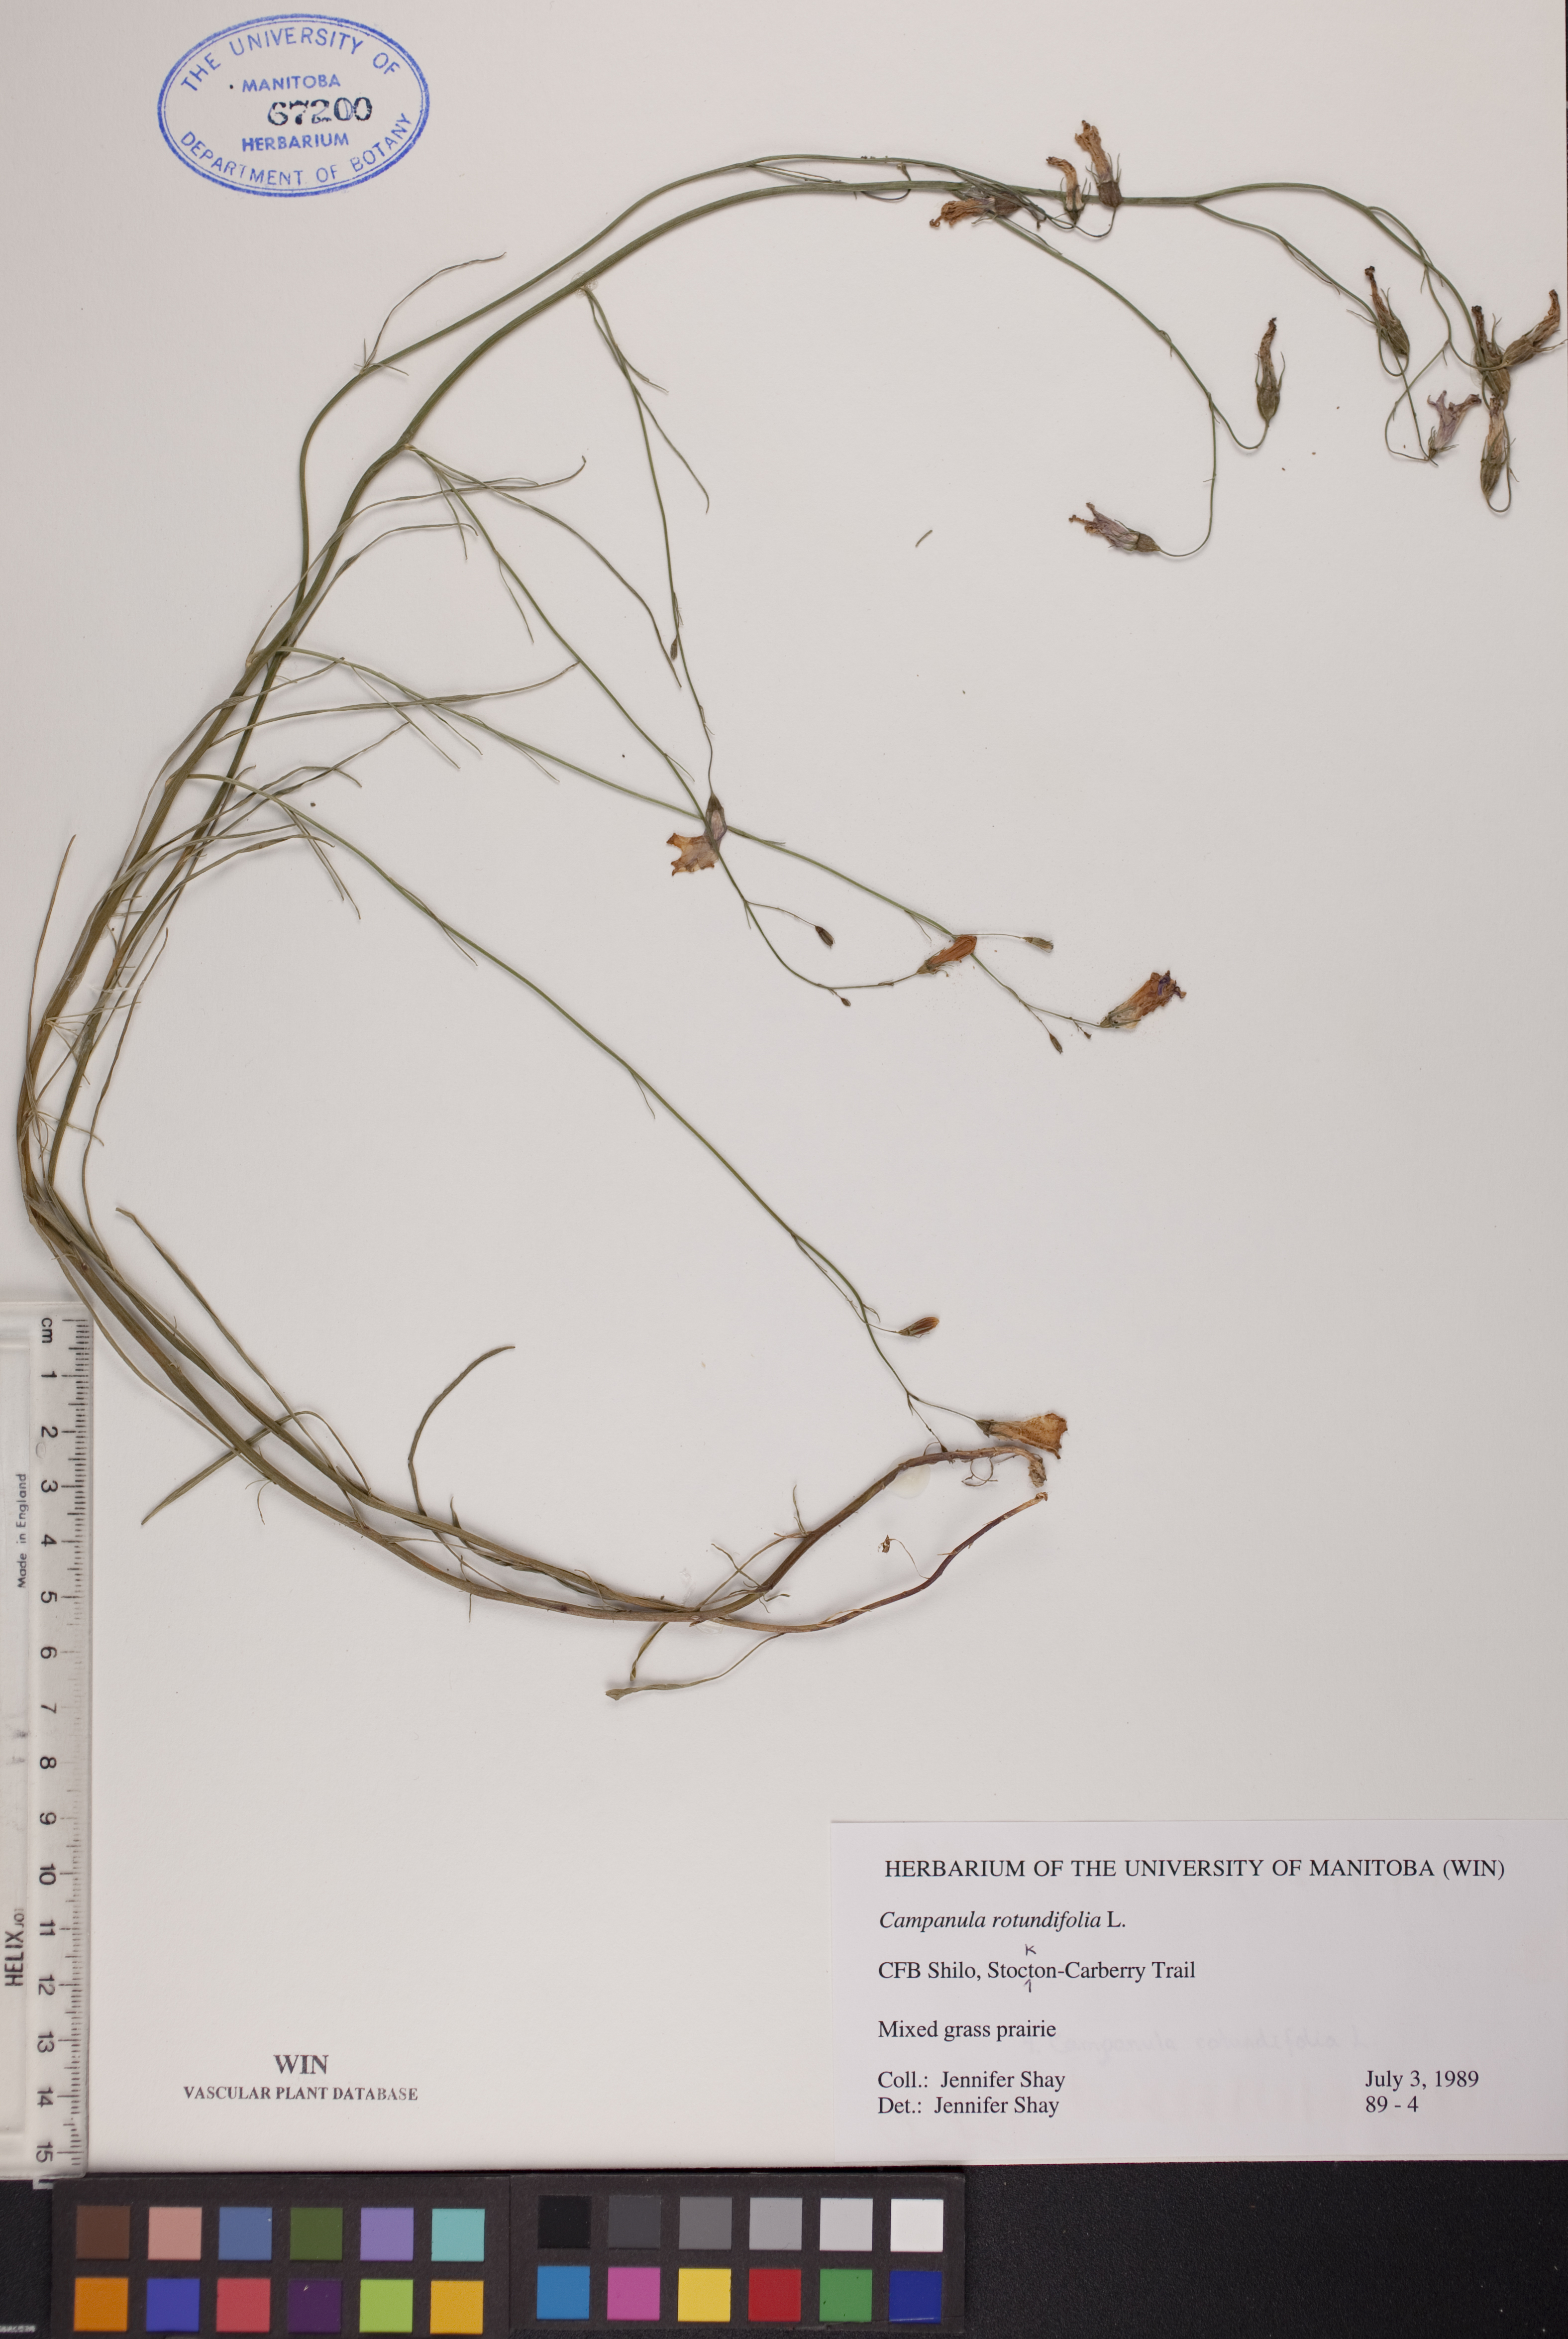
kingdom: Plantae
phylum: Tracheophyta
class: Magnoliopsida
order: Asterales
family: Campanulaceae
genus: Campanula
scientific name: Campanula rotundifolia
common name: Harebell
